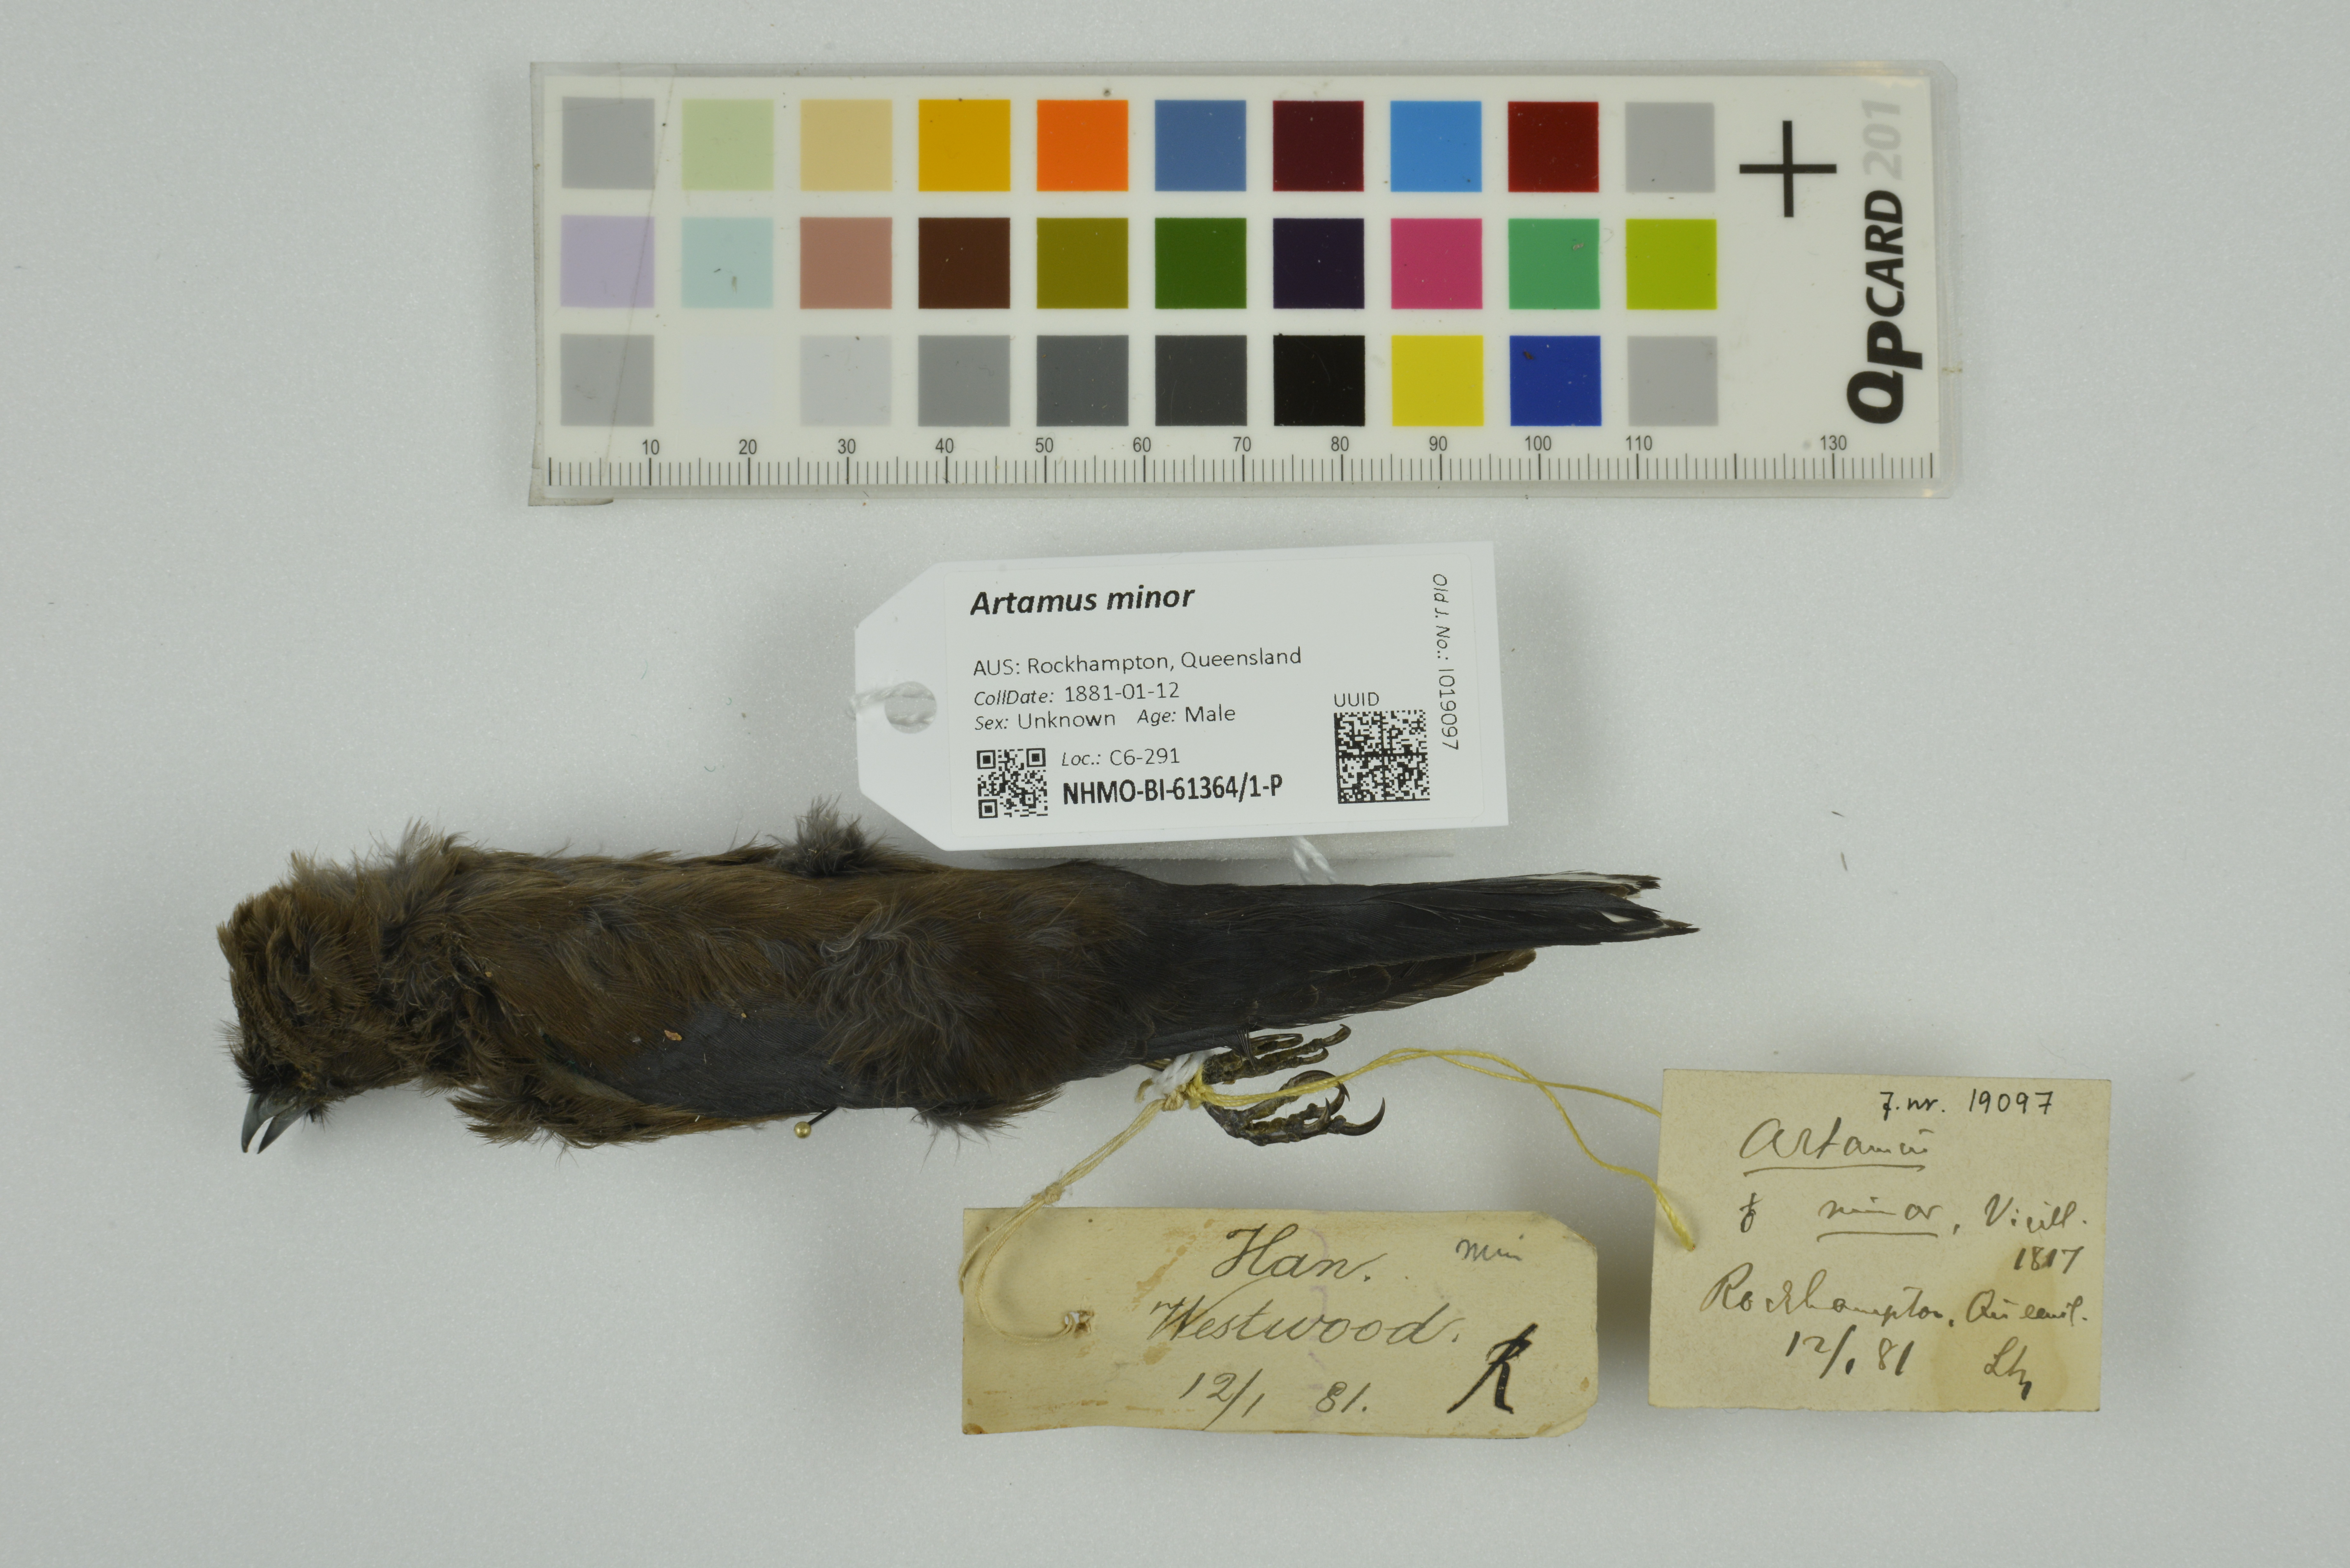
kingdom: Animalia
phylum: Chordata
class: Aves
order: Passeriformes
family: Artamidae
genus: Artamus
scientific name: Artamus minor
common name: Little woodswallow
